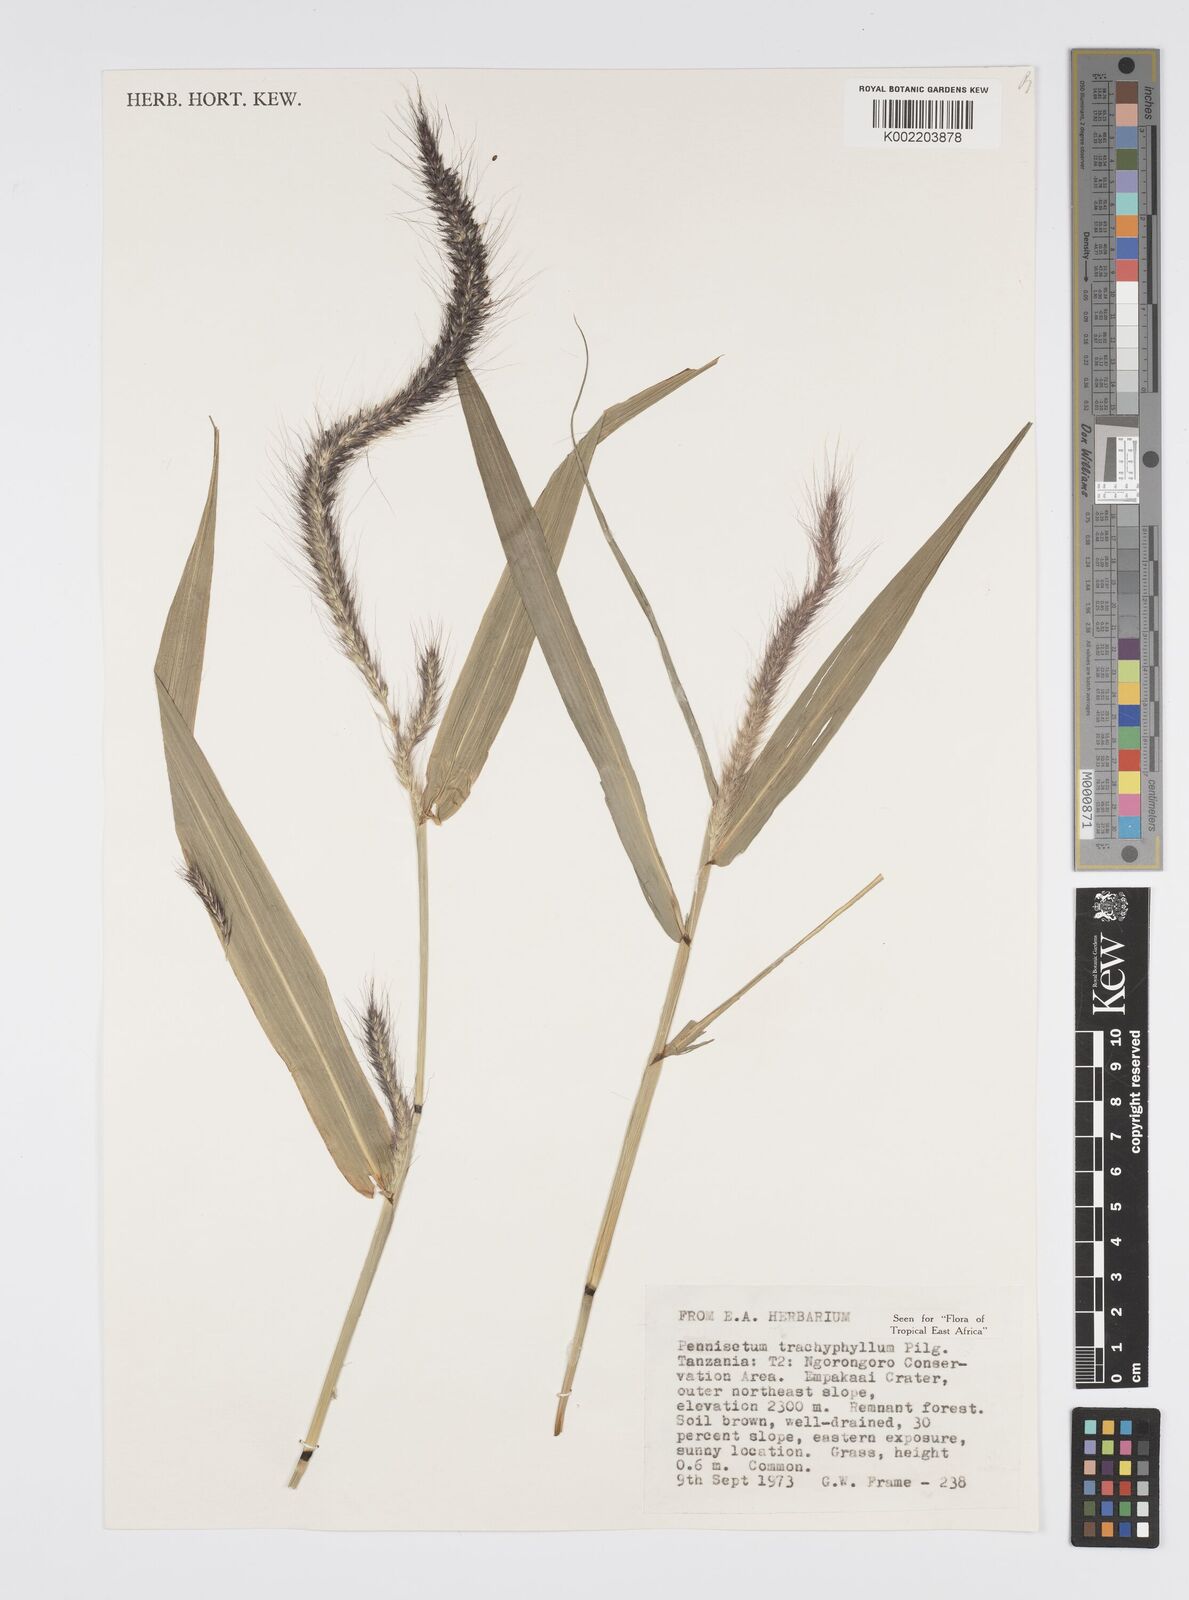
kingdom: Plantae
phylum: Tracheophyta
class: Liliopsida
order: Poales
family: Poaceae
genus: Cenchrus
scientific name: Cenchrus trachyphyllus
